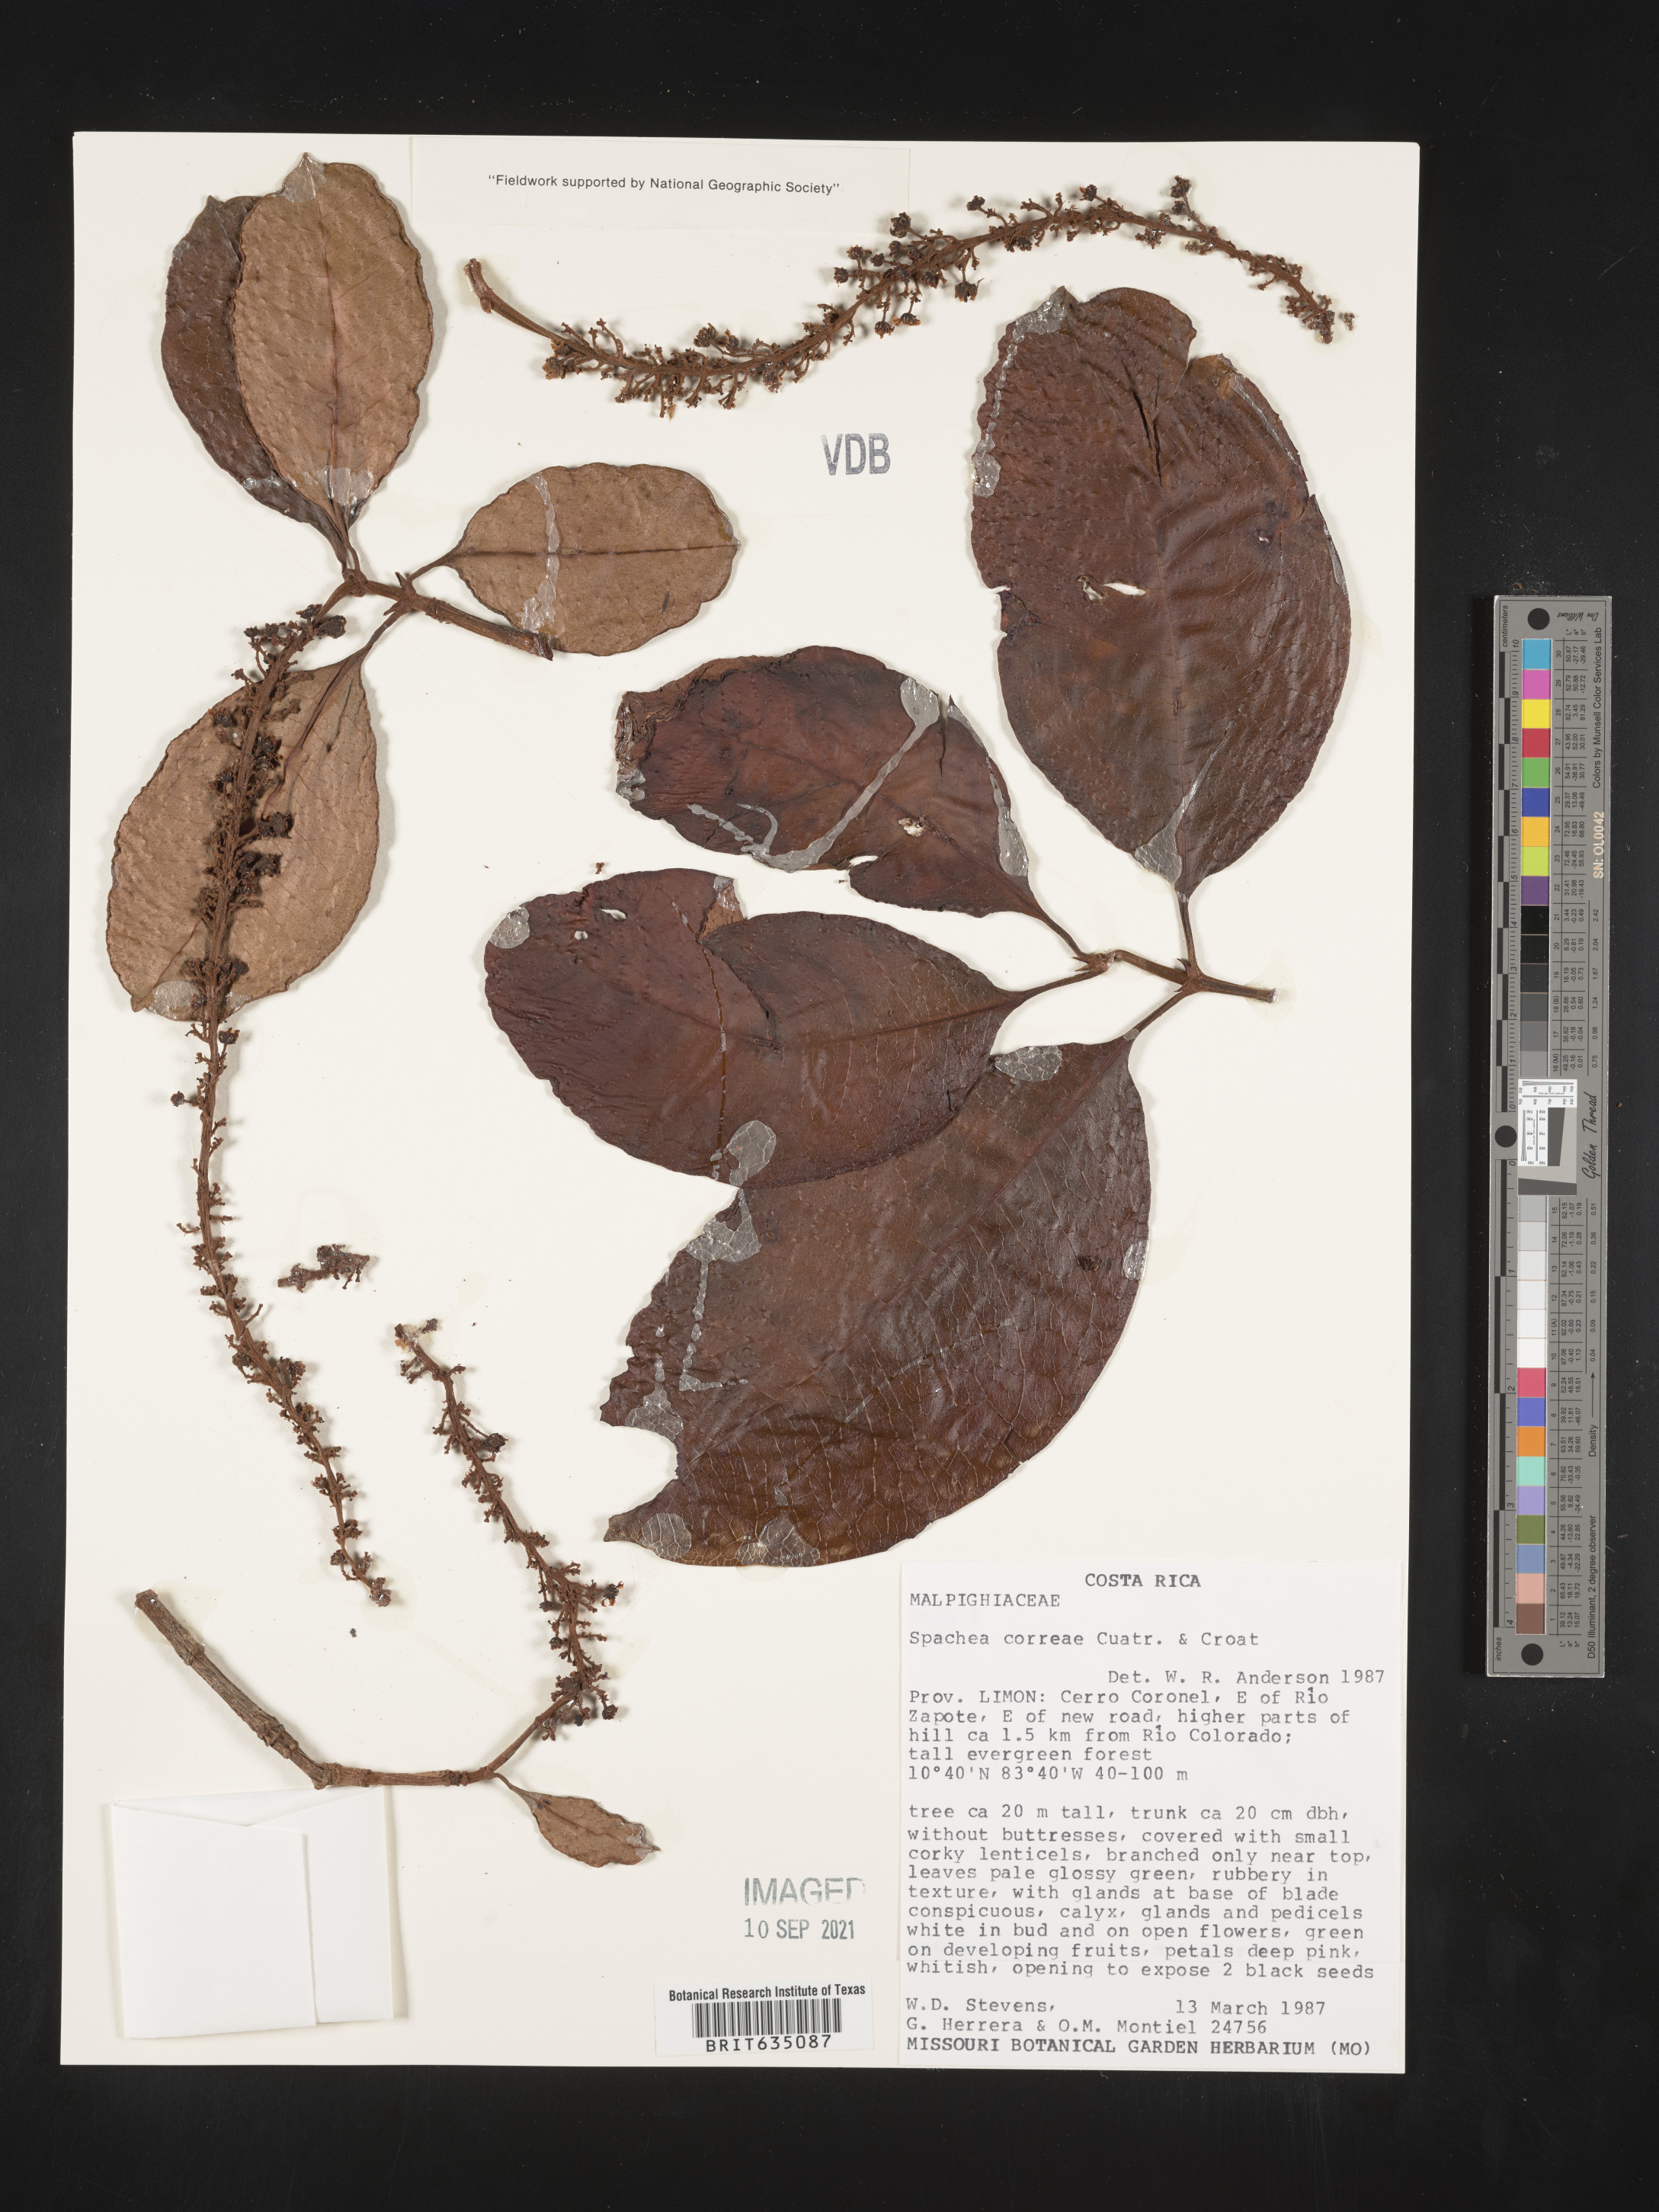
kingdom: Plantae
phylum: Tracheophyta
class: Magnoliopsida
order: Malpighiales
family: Malpighiaceae
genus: Spachea
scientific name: Spachea
